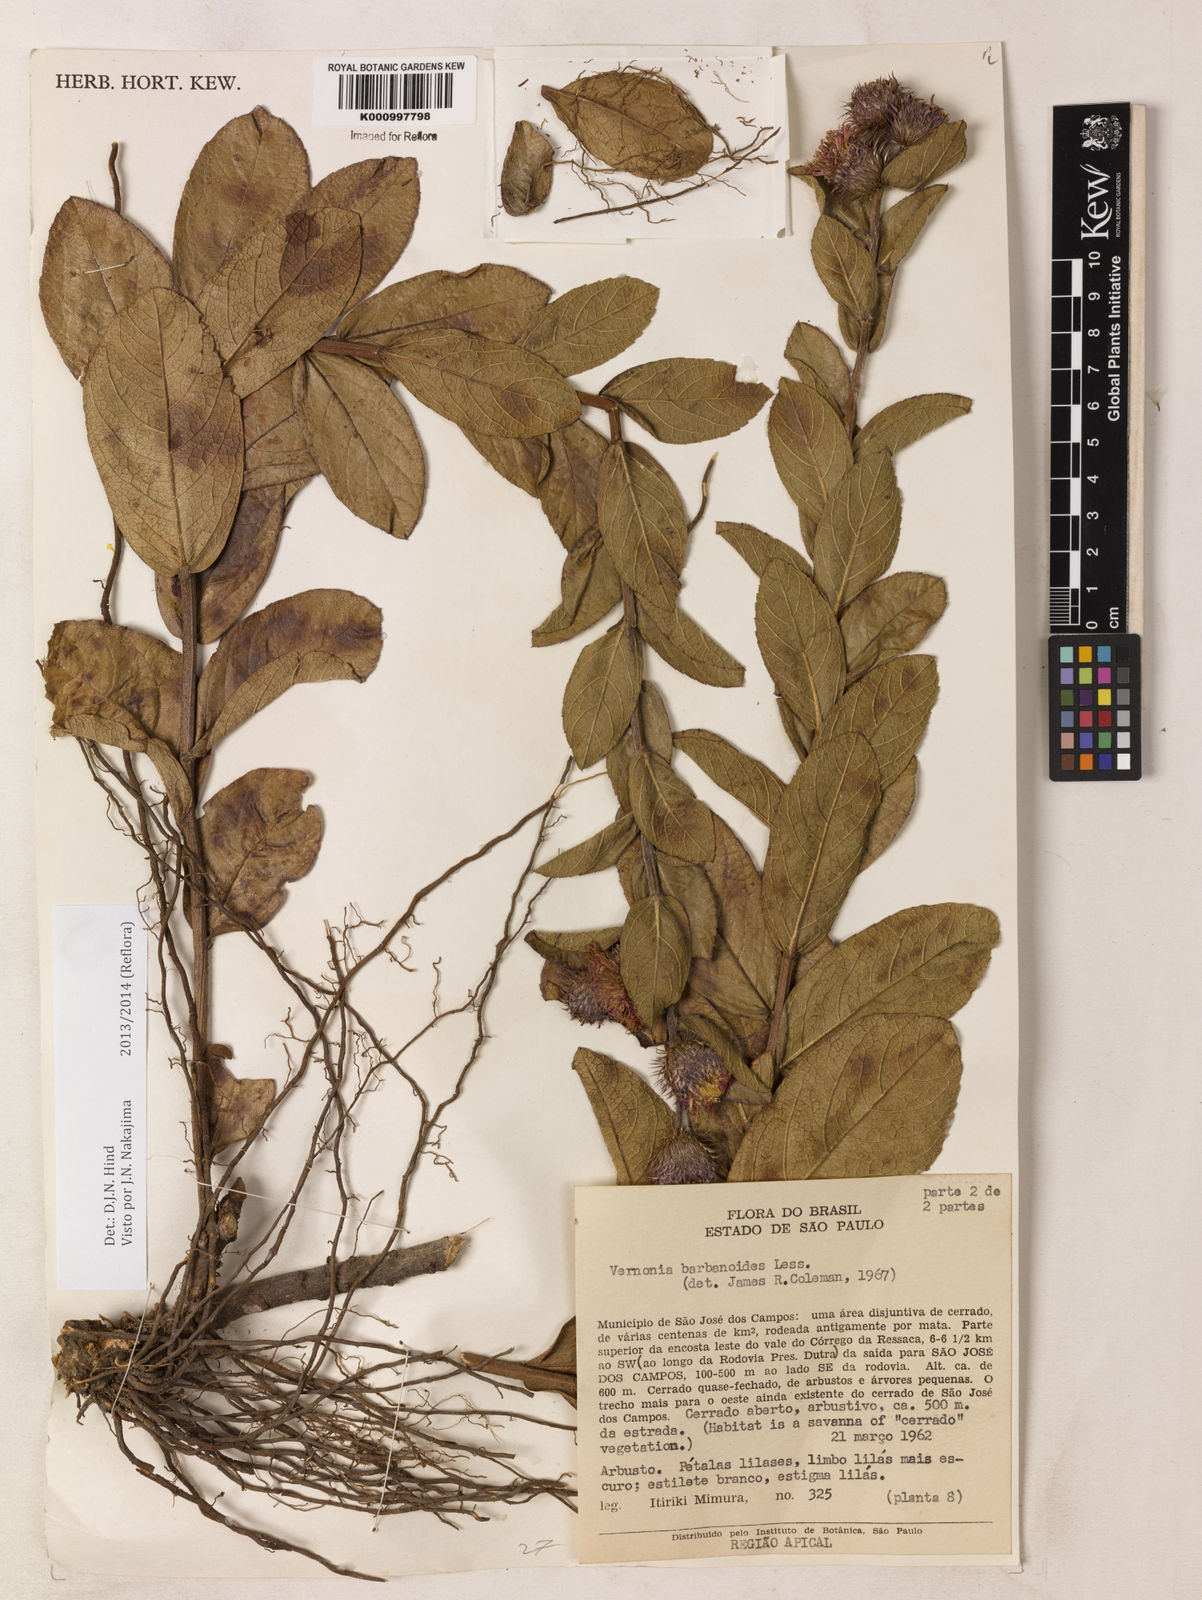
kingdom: Plantae
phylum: Tracheophyta
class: Magnoliopsida
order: Asterales
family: Asteraceae
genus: Lessingianthus
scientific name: Lessingianthus bardanioides
